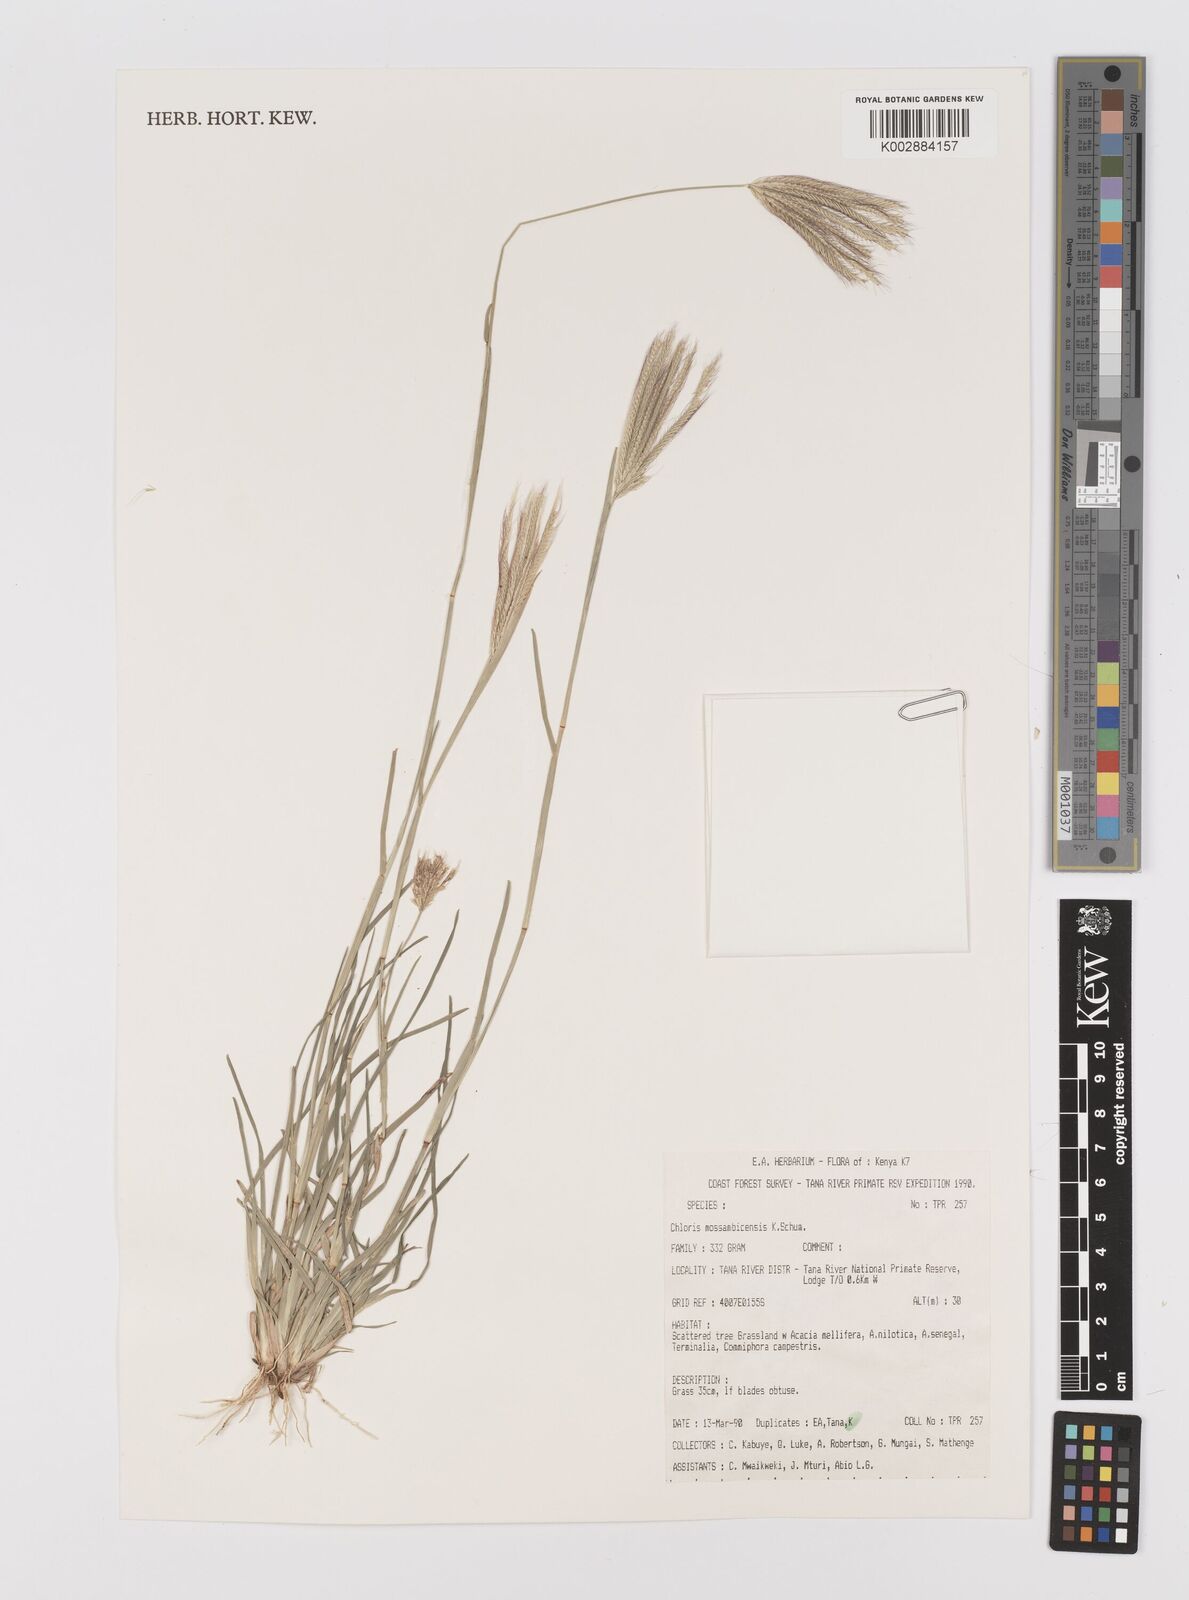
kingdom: Plantae
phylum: Tracheophyta
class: Liliopsida
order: Poales
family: Poaceae
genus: Chloris
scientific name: Chloris mossambicensis
